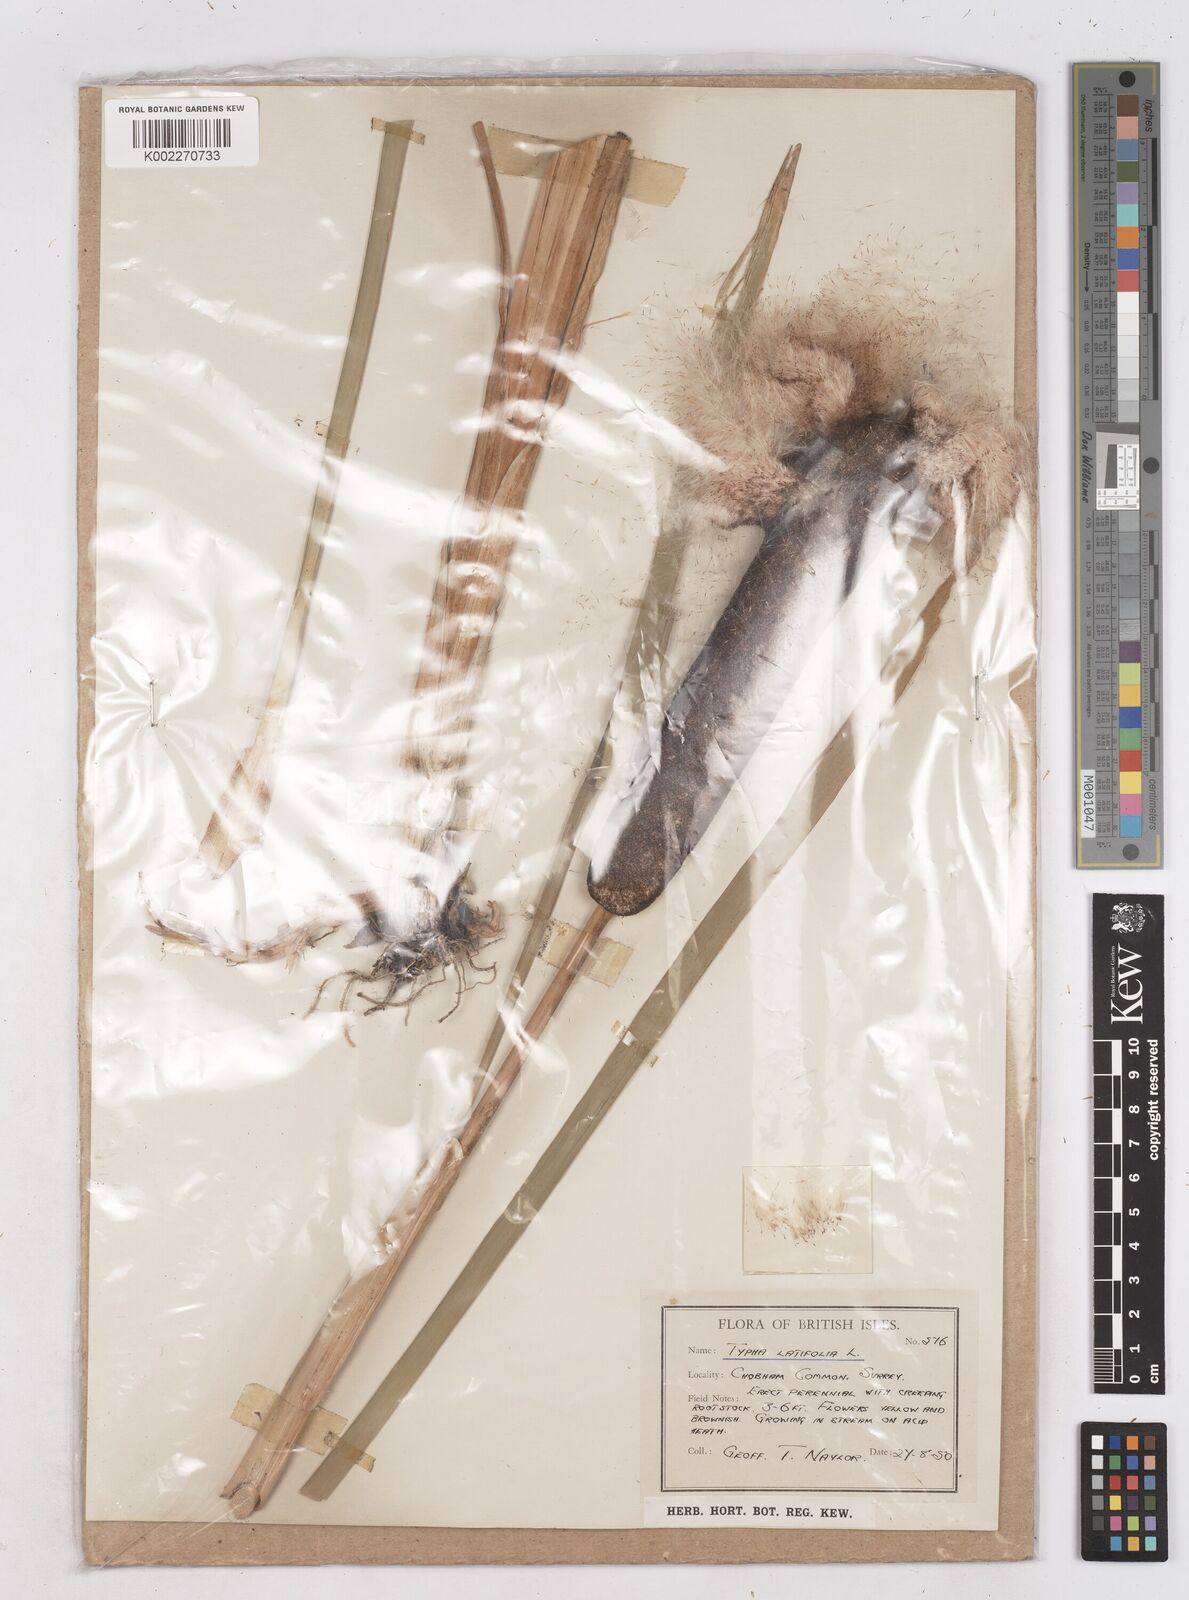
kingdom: Plantae
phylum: Tracheophyta
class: Liliopsida
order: Poales
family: Typhaceae
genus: Typha
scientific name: Typha latifolia
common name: Broadleaf cattail
